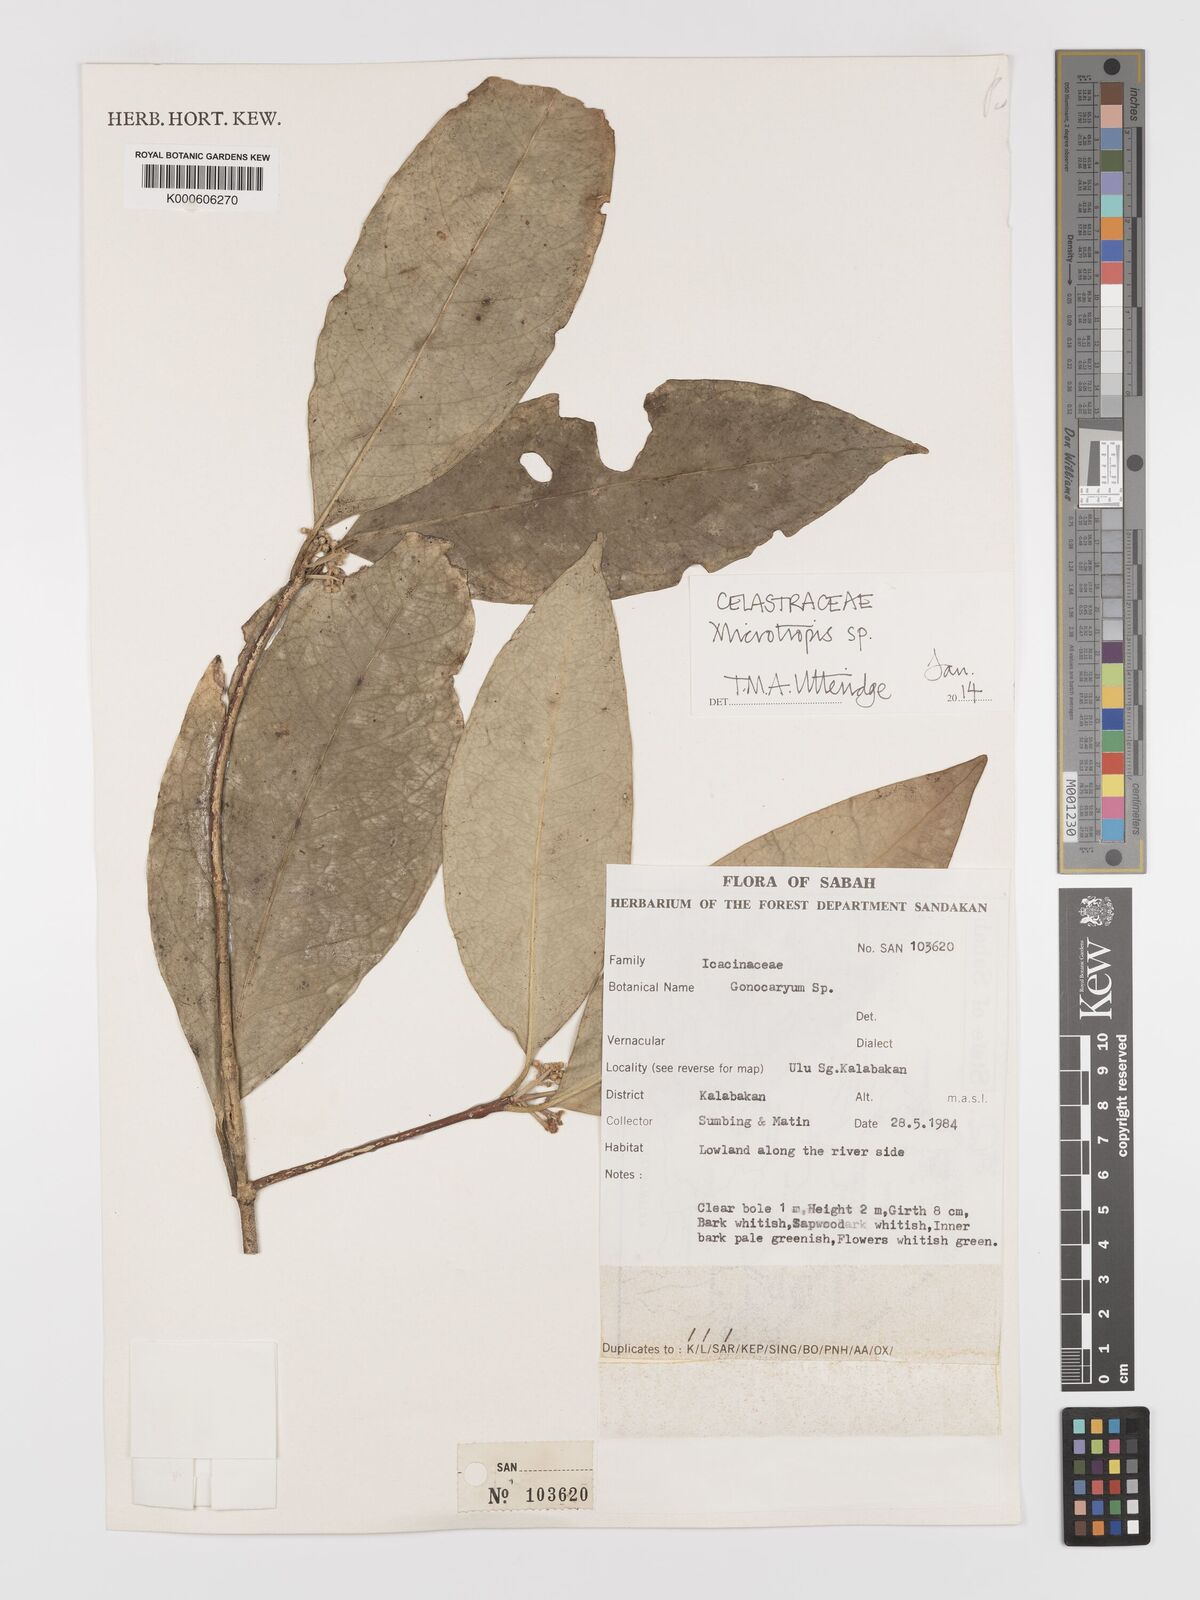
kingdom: Plantae
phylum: Tracheophyta
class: Magnoliopsida
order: Celastrales
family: Celastraceae
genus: Microtropis
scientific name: Microtropis
